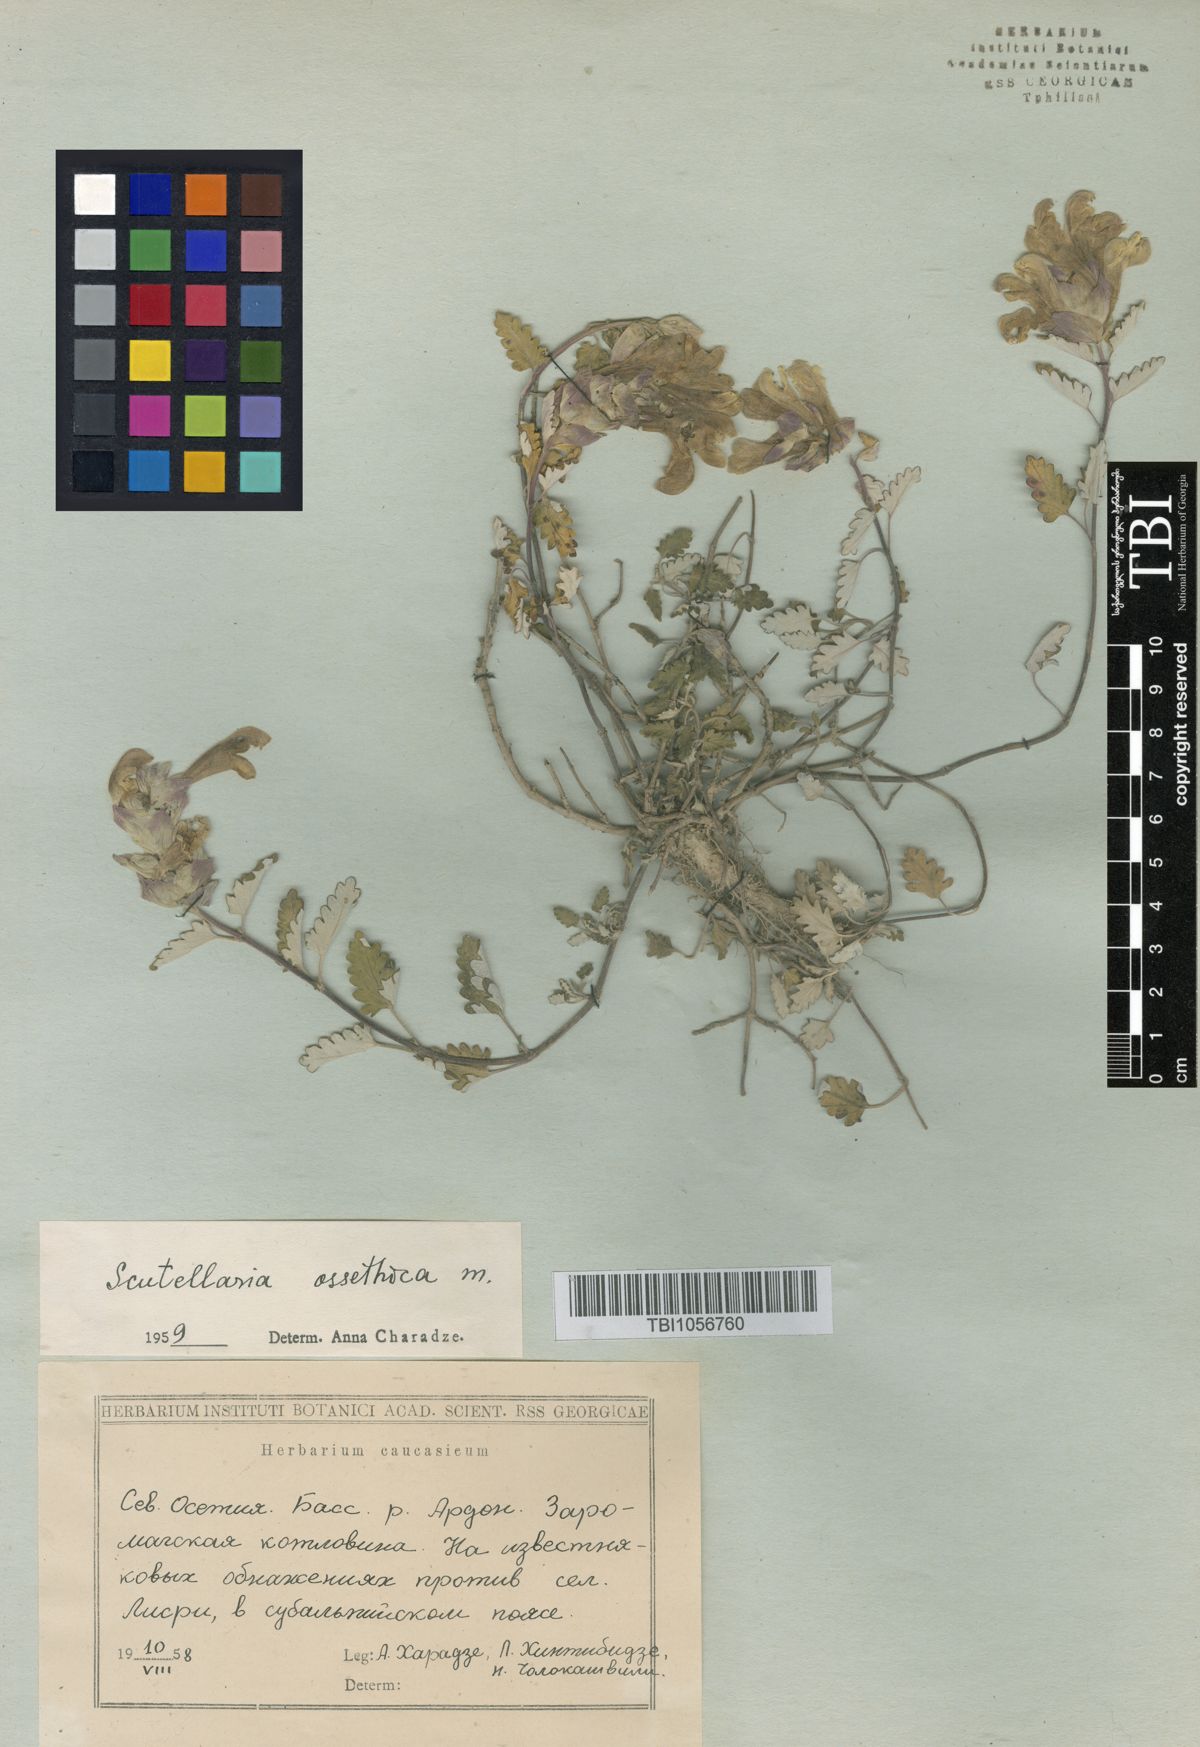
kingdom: Plantae
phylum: Tracheophyta
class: Magnoliopsida
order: Lamiales
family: Lamiaceae
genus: Scutellaria
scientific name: Scutellaria ossethica
